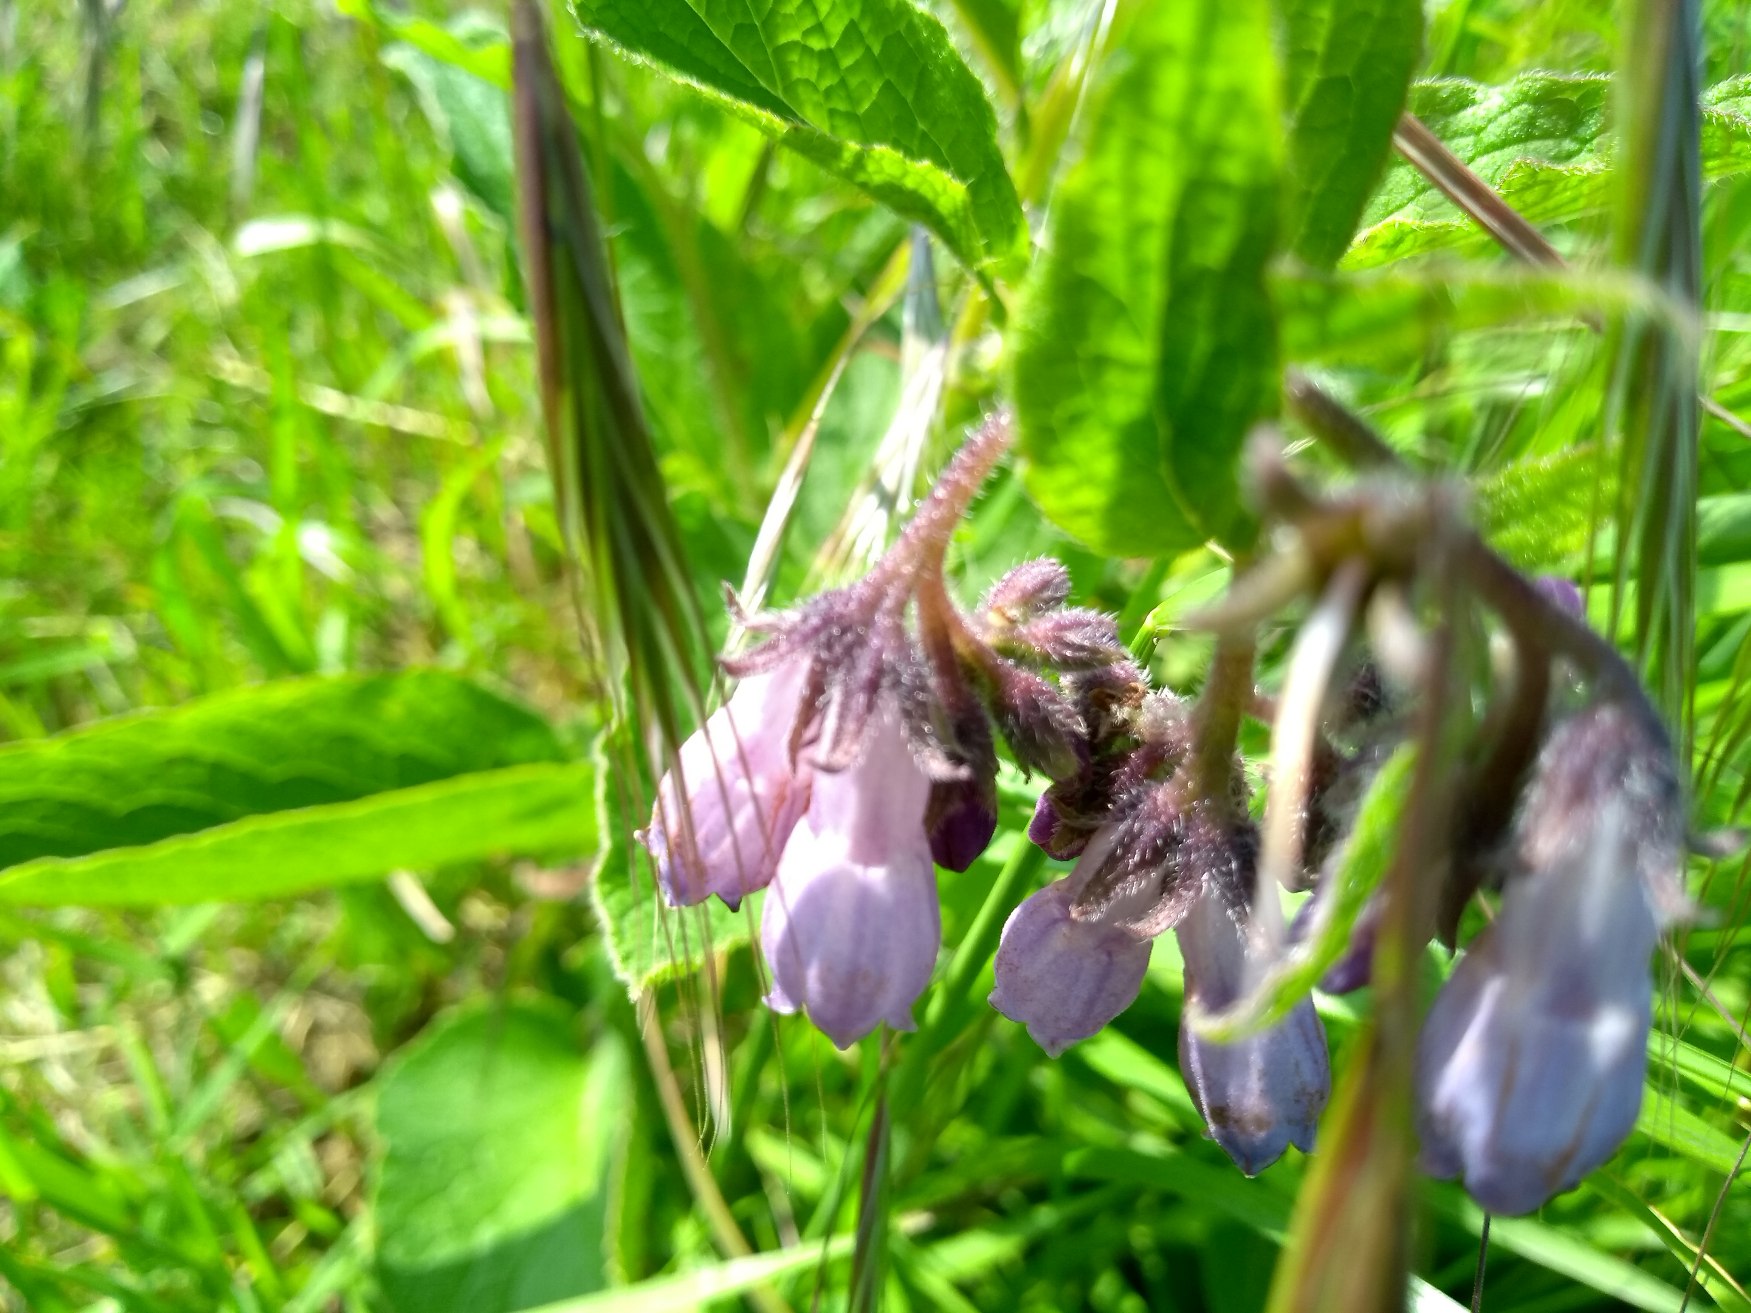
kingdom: Plantae
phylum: Tracheophyta
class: Magnoliopsida
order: Boraginales
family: Boraginaceae
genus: Symphytum
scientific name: Symphytum uplandicum
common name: Foder-kulsukker
